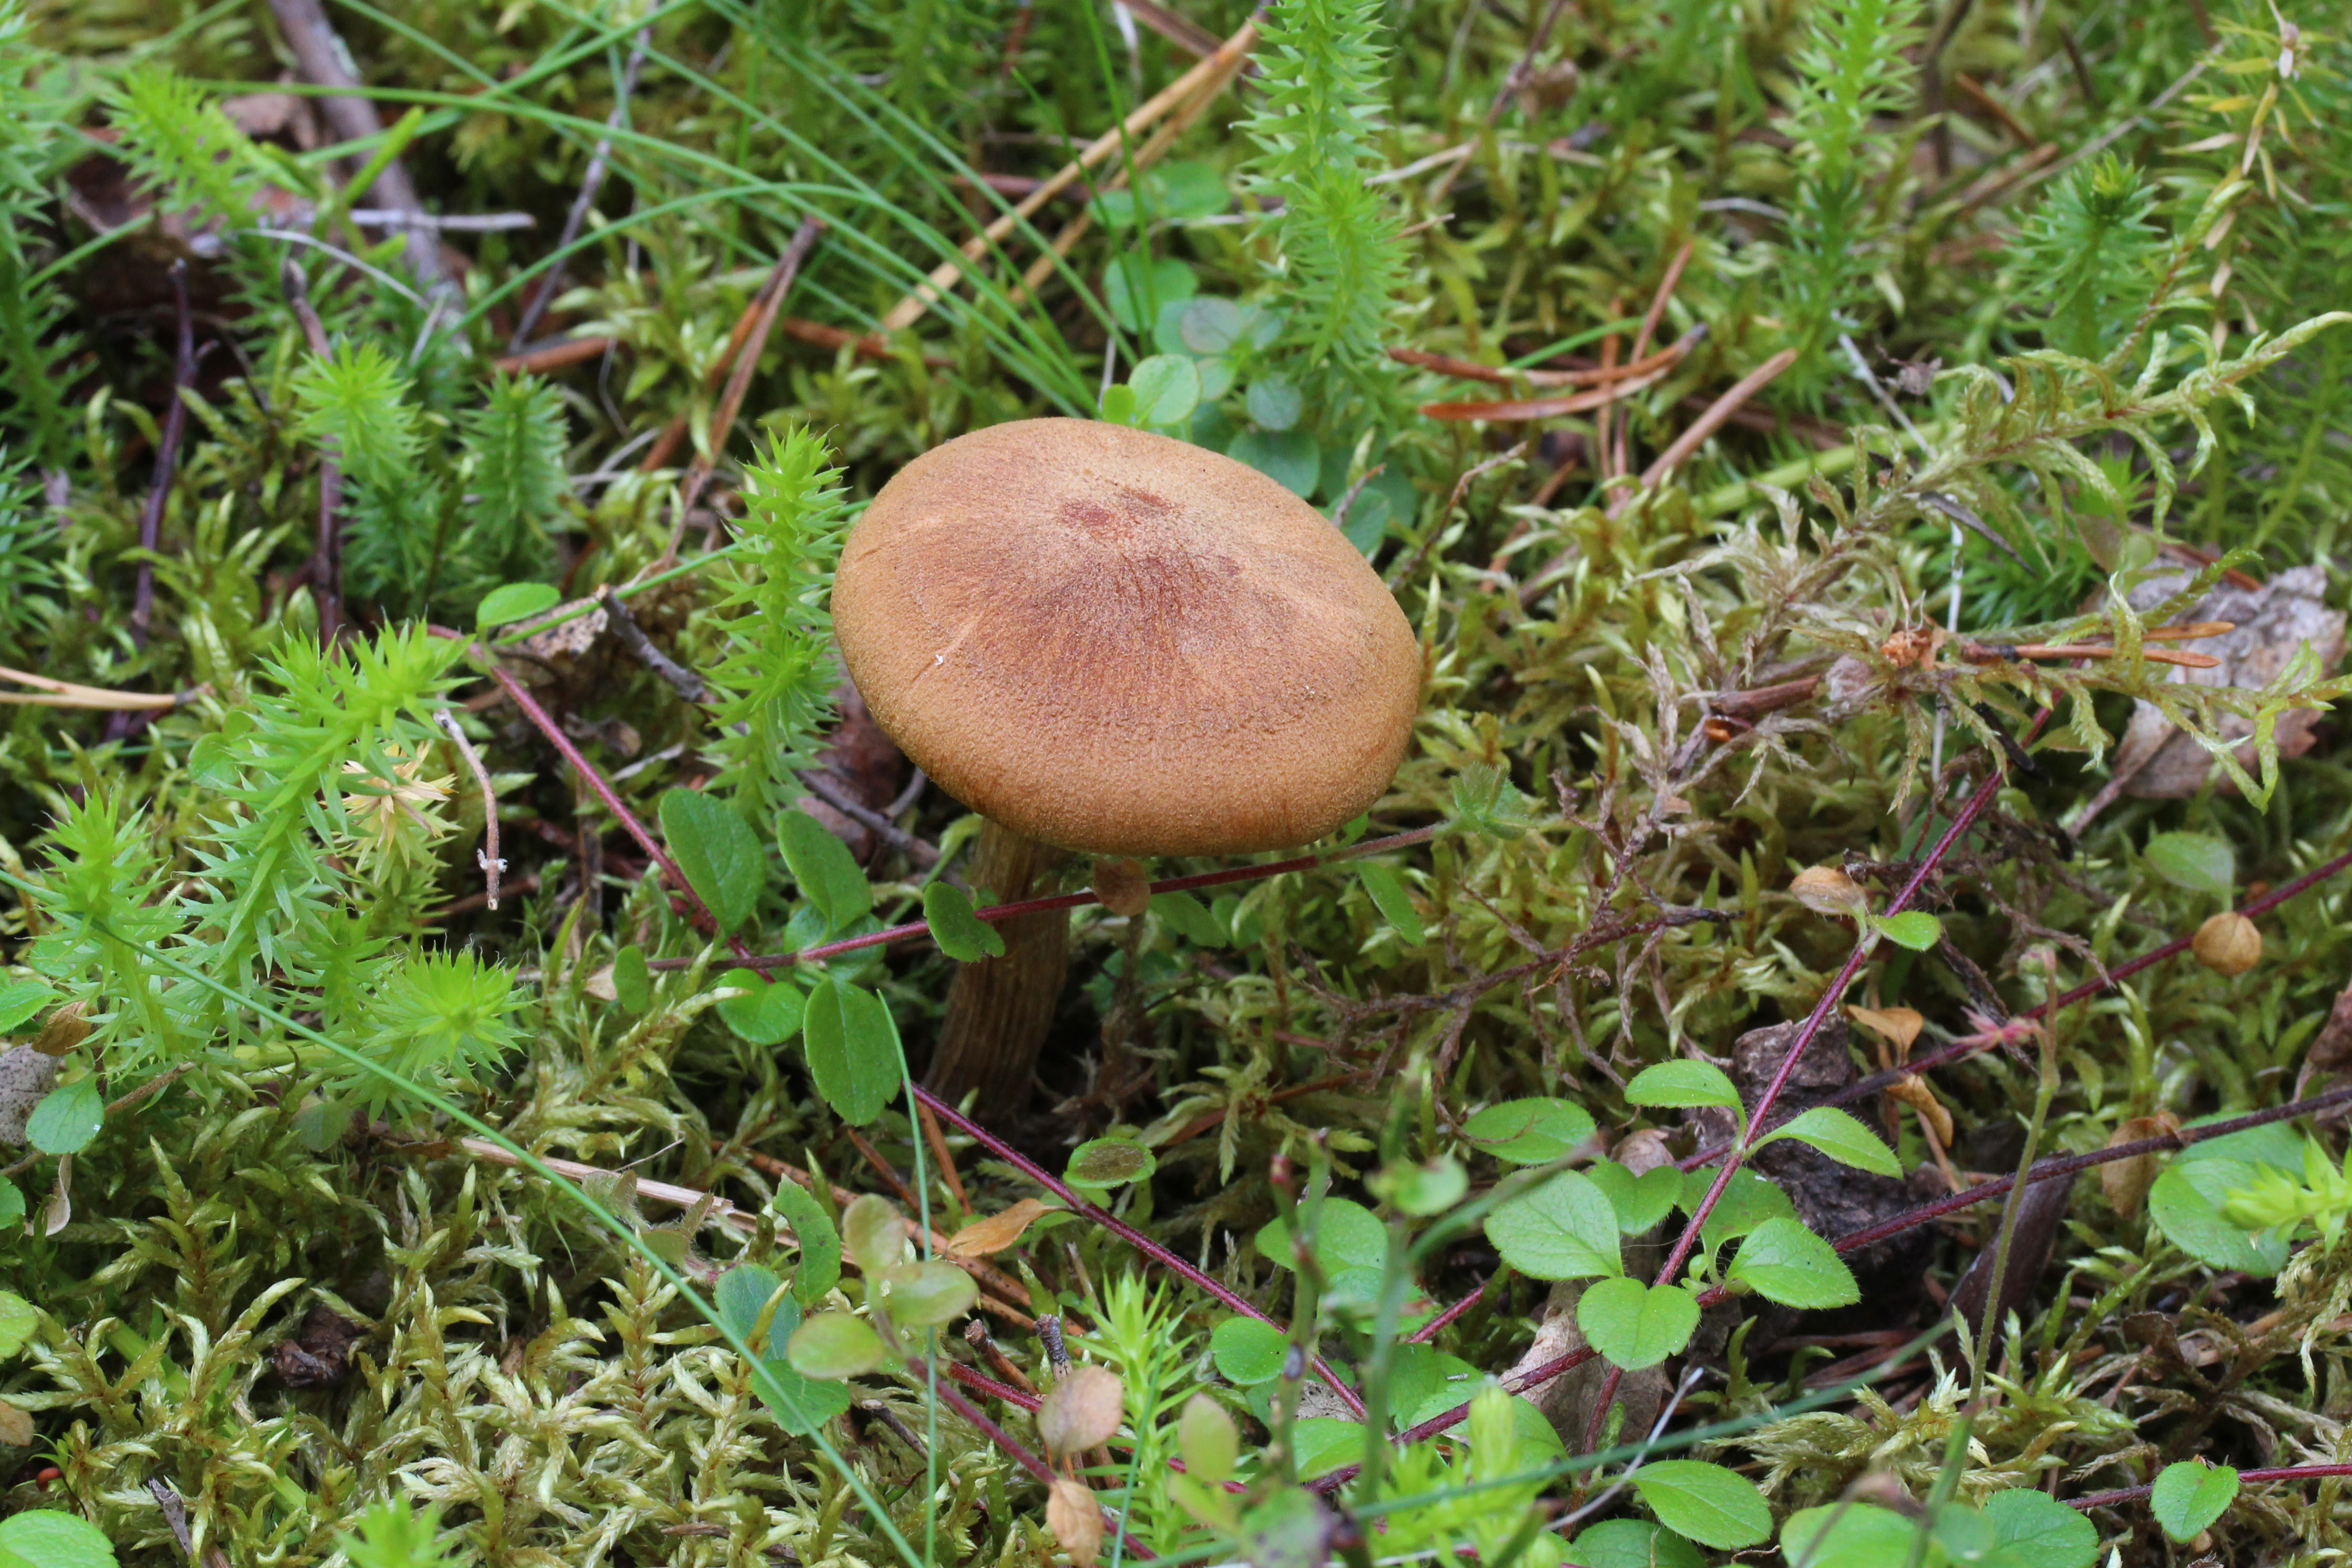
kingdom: Fungi
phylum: Basidiomycota
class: Agaricomycetes
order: Agaricales
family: Hymenogastraceae
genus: Gymnopilus
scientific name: Gymnopilus penetrans
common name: Common rustgill
